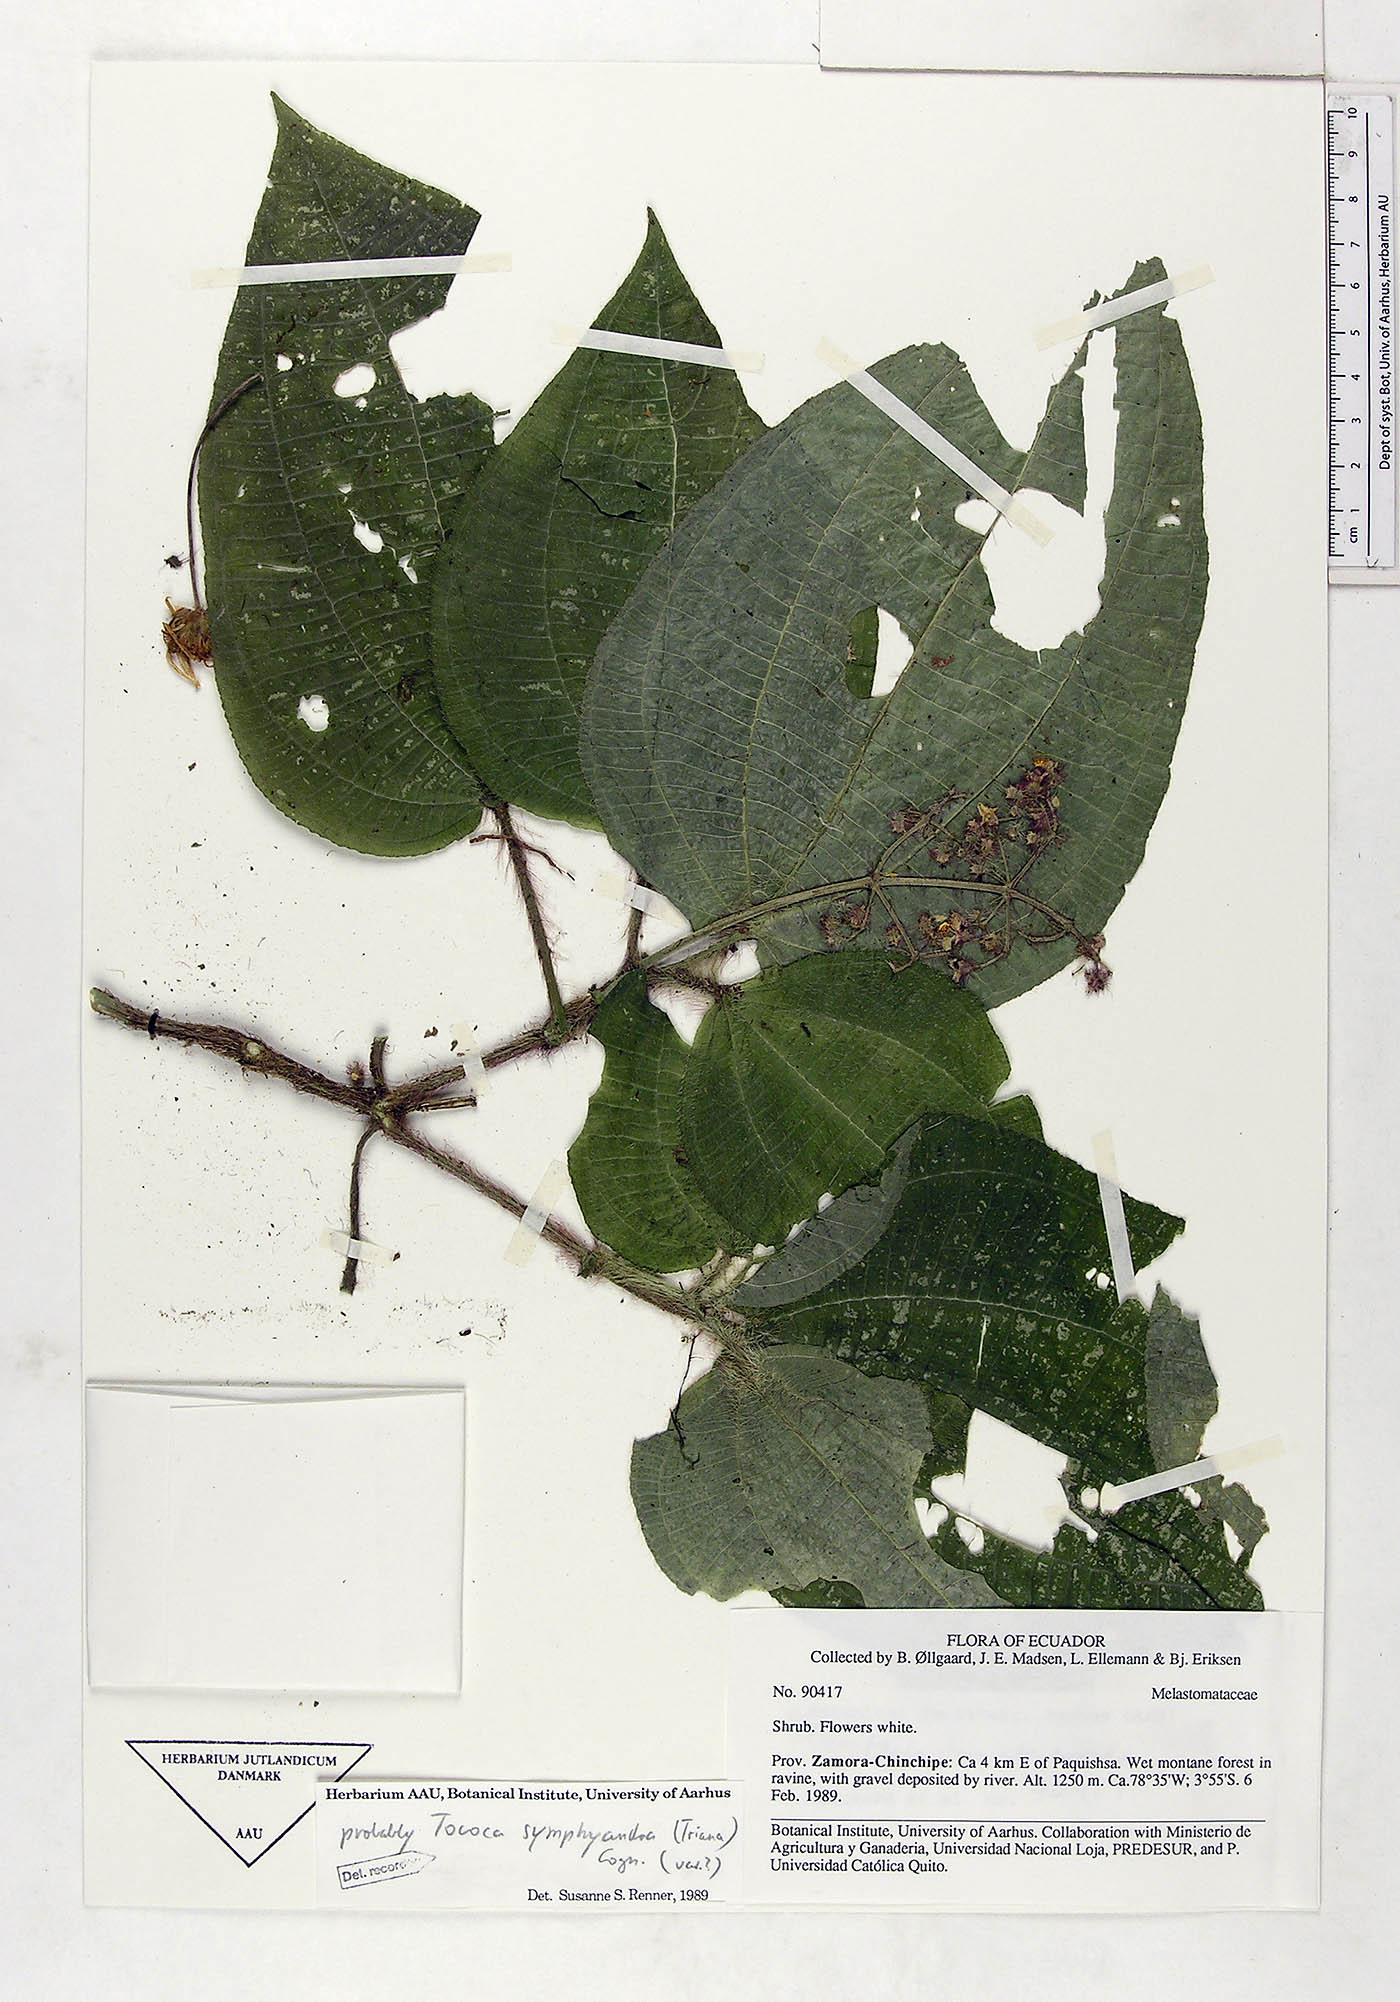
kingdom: Plantae
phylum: Tracheophyta
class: Magnoliopsida
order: Myrtales
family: Melastomataceae
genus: Miconia
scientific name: Miconia symphyandra
